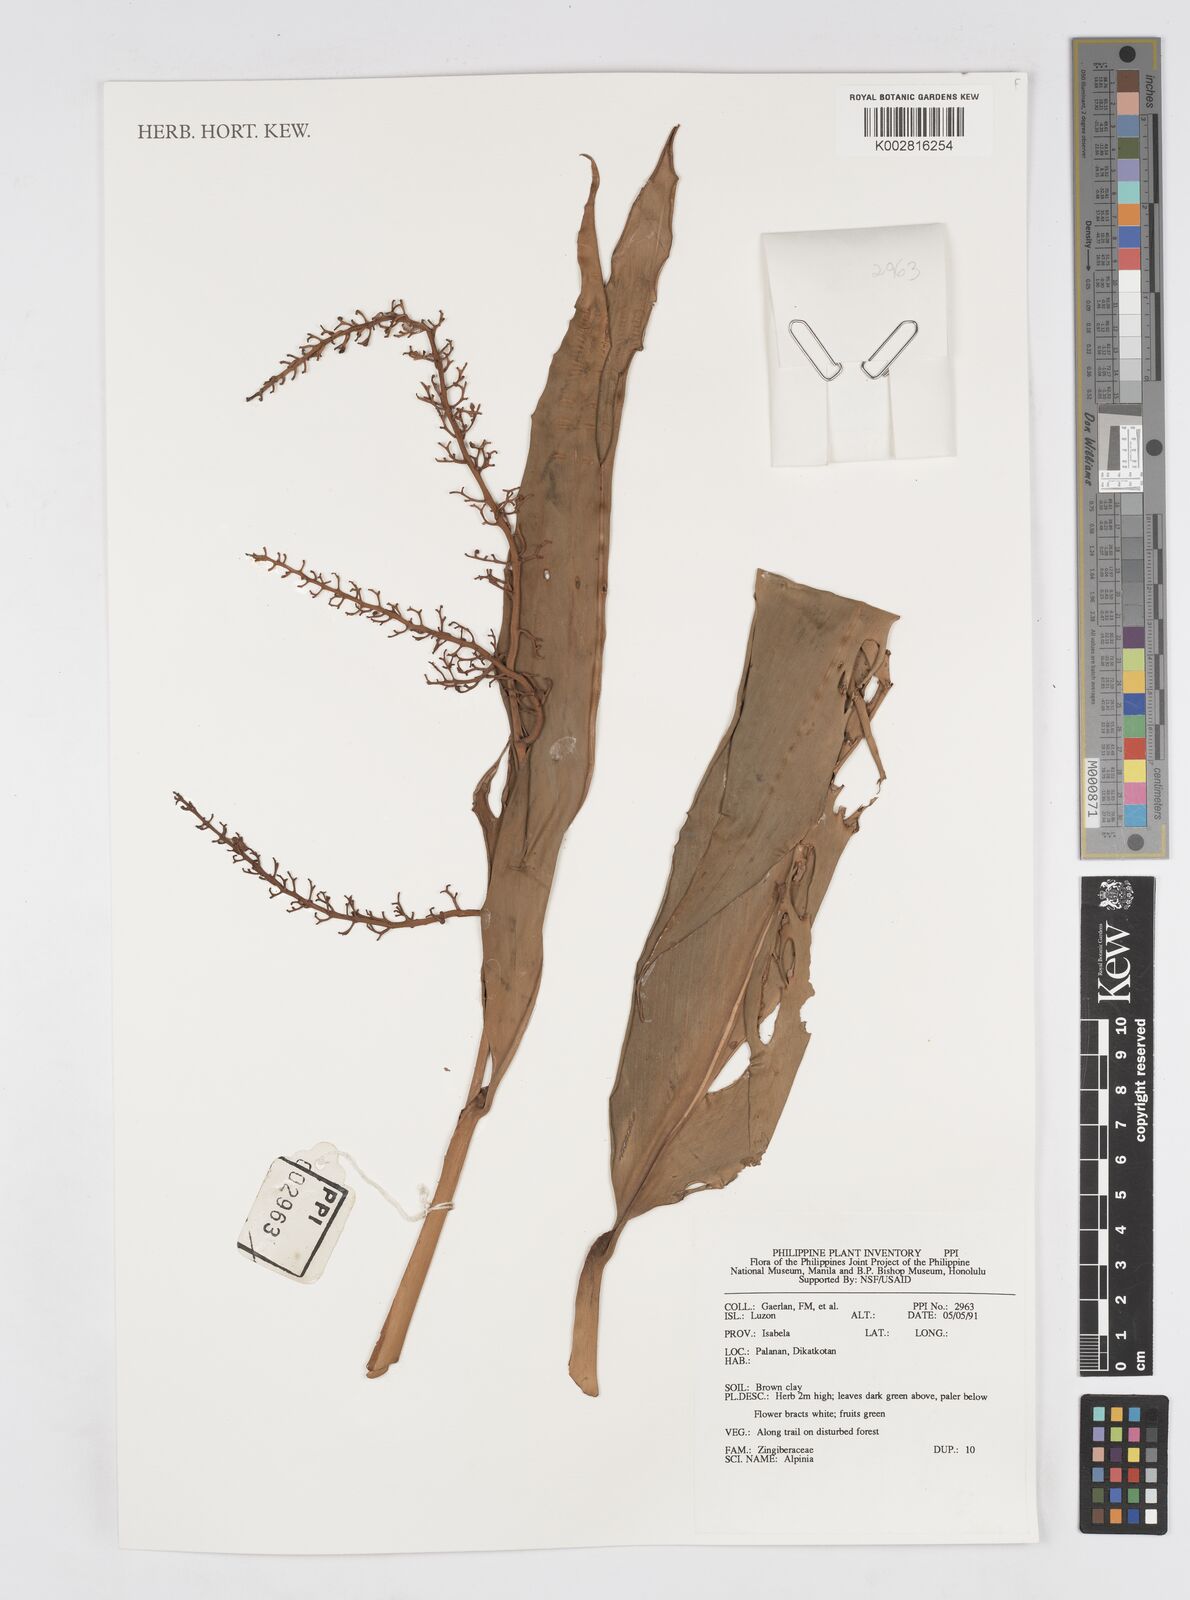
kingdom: Plantae
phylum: Tracheophyta
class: Liliopsida
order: Zingiberales
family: Zingiberaceae
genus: Alpinia
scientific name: Alpinia
